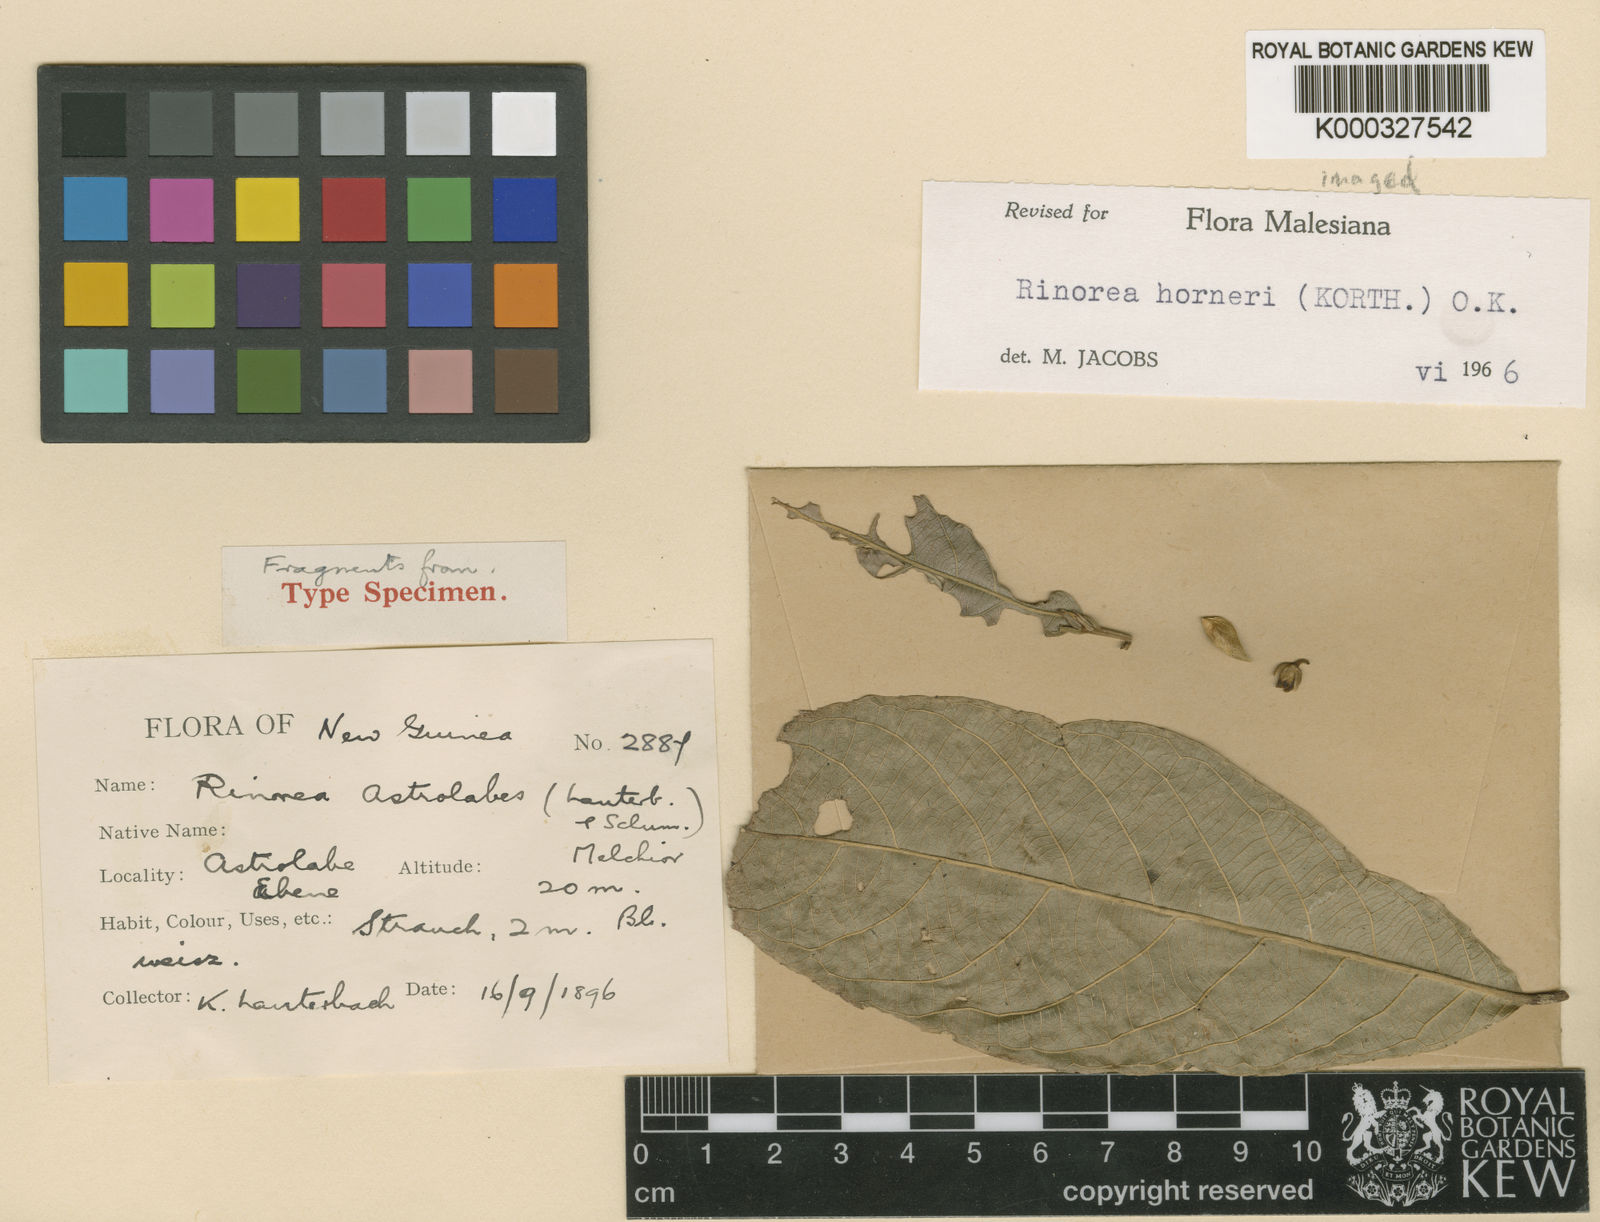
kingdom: Plantae
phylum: Tracheophyta
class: Magnoliopsida
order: Malpighiales
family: Violaceae
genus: Rinorea
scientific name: Rinorea horneri
